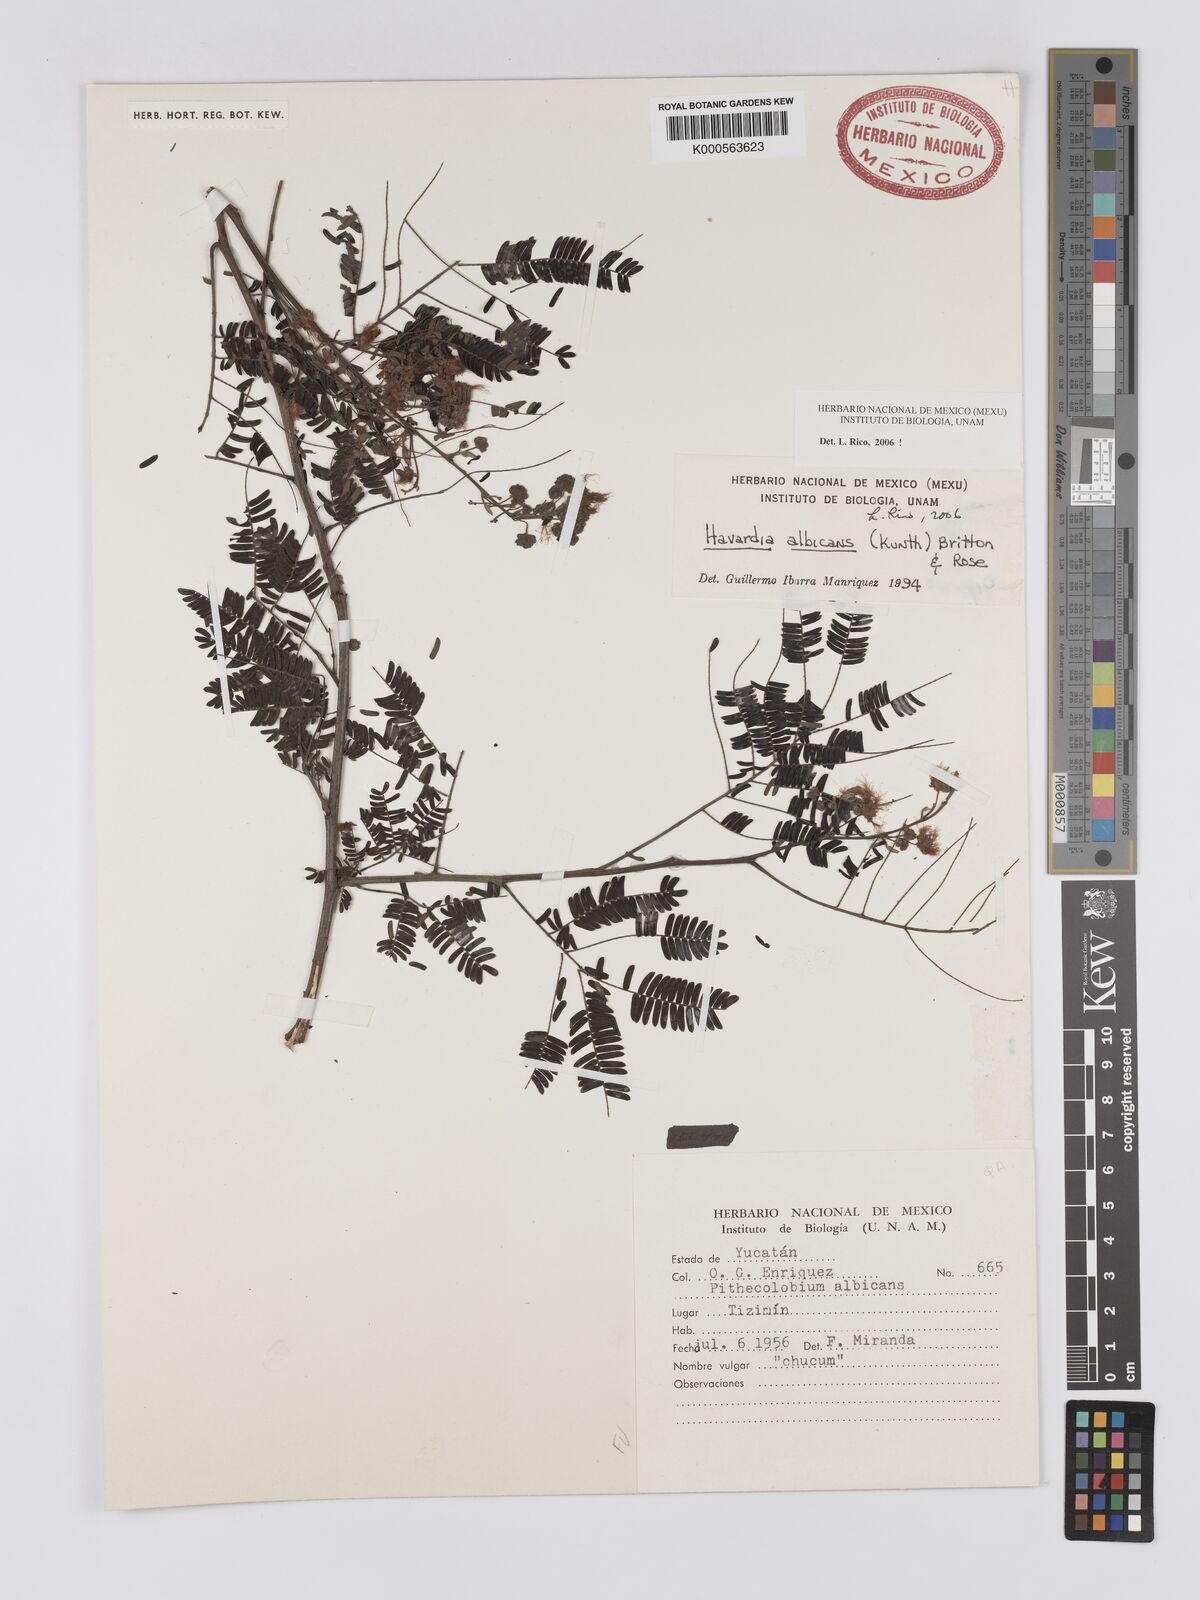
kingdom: Plantae
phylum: Tracheophyta
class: Magnoliopsida
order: Fabales
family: Fabaceae
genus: Havardia
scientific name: Havardia pallens
